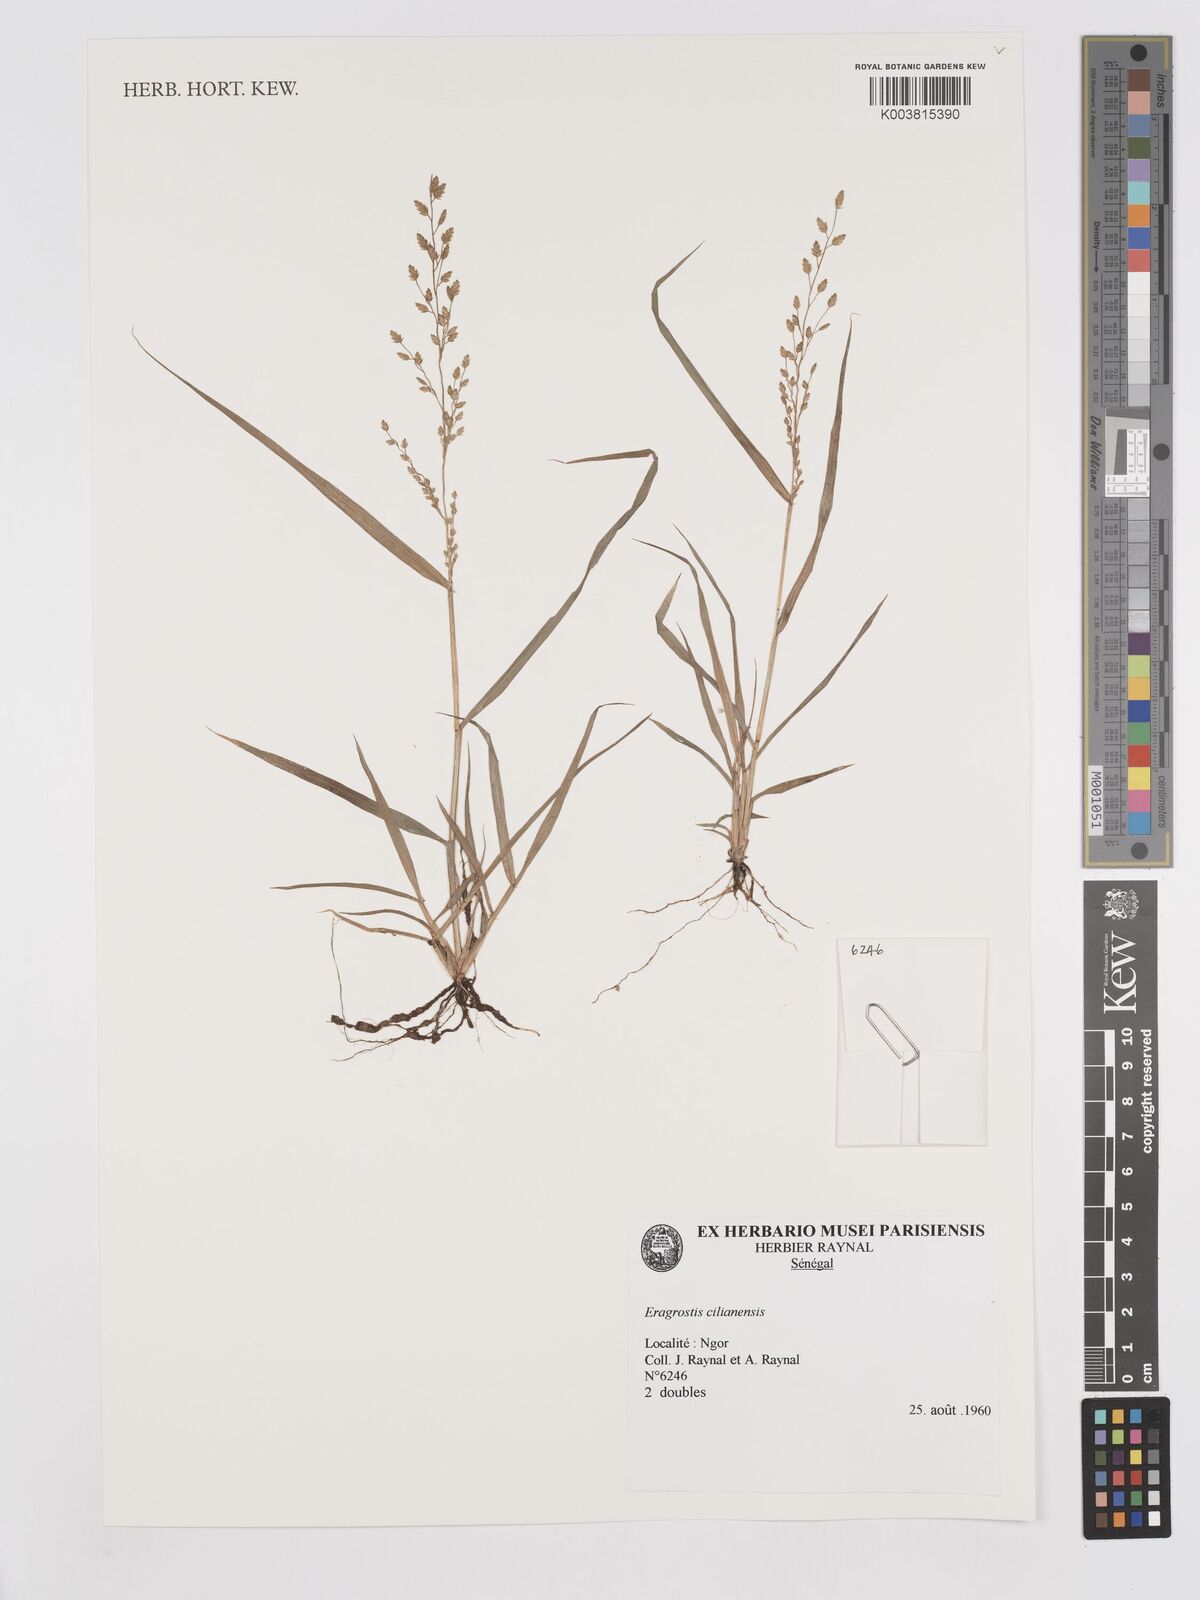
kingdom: Plantae
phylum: Tracheophyta
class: Liliopsida
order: Poales
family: Poaceae
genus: Eragrostis
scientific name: Eragrostis cilianensis
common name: Stinkgrass
